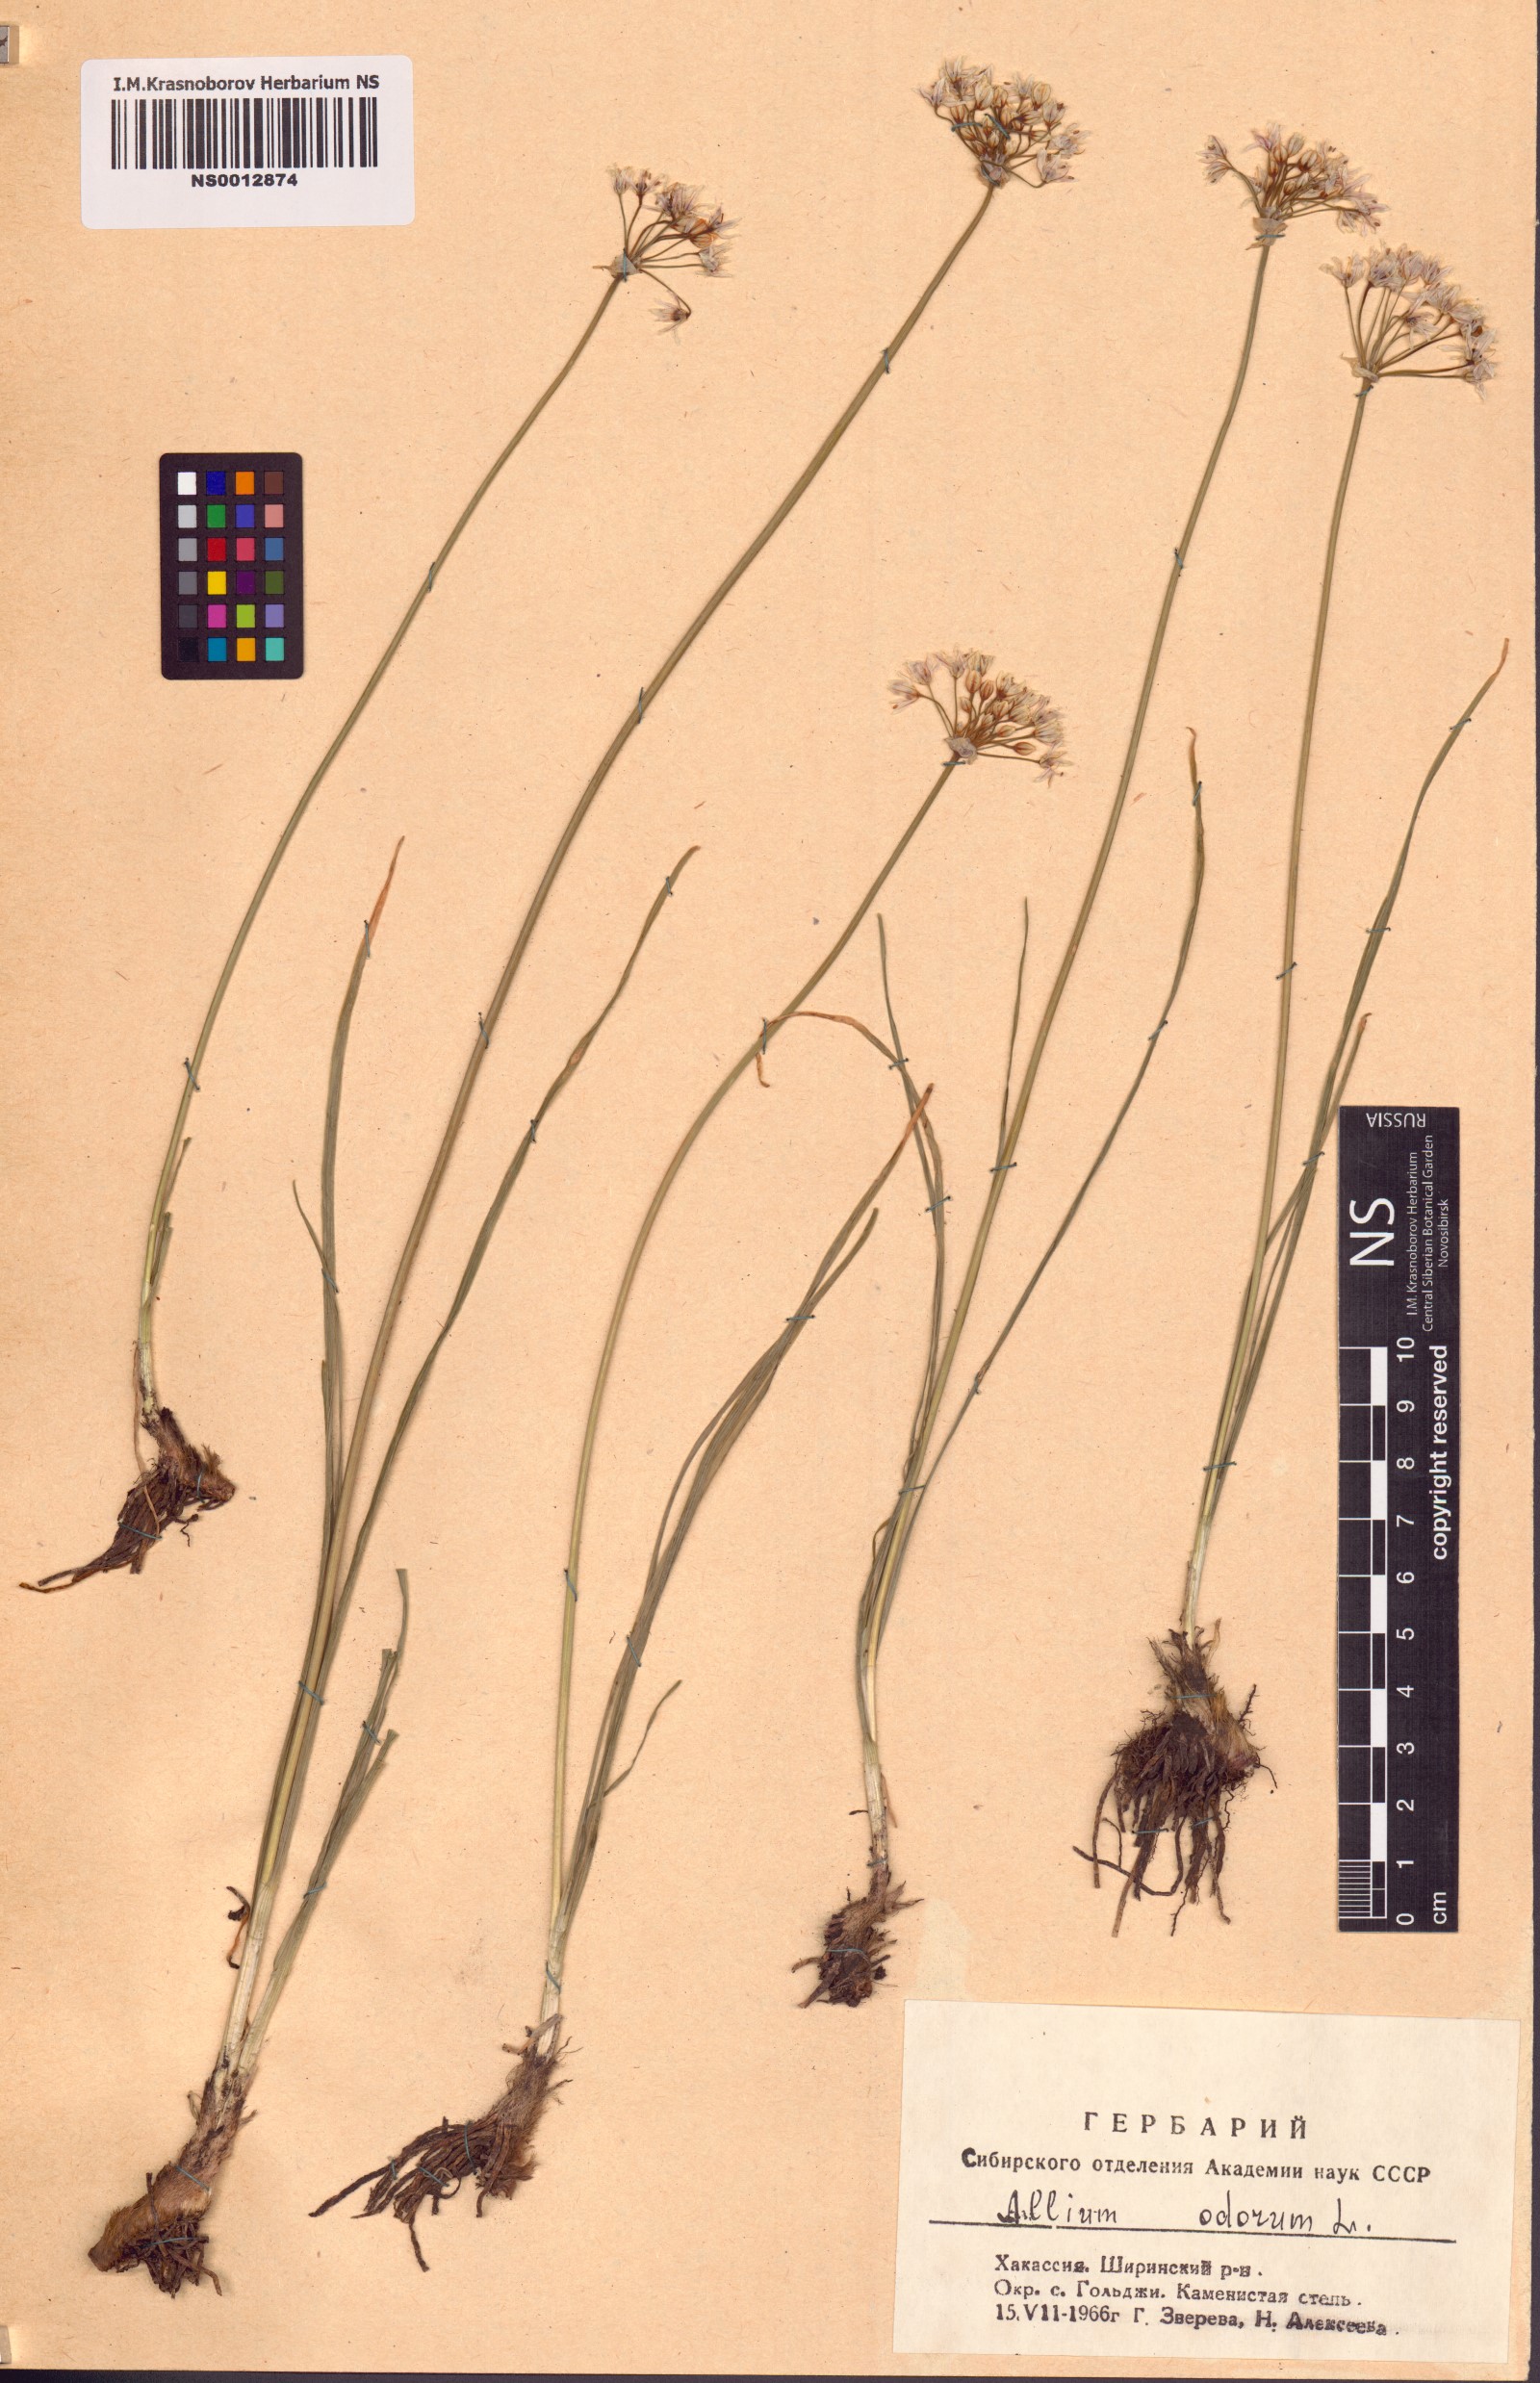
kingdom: Plantae
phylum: Tracheophyta
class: Liliopsida
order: Asparagales
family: Amaryllidaceae
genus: Allium
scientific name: Allium ramosum
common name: Fragrant garlic
